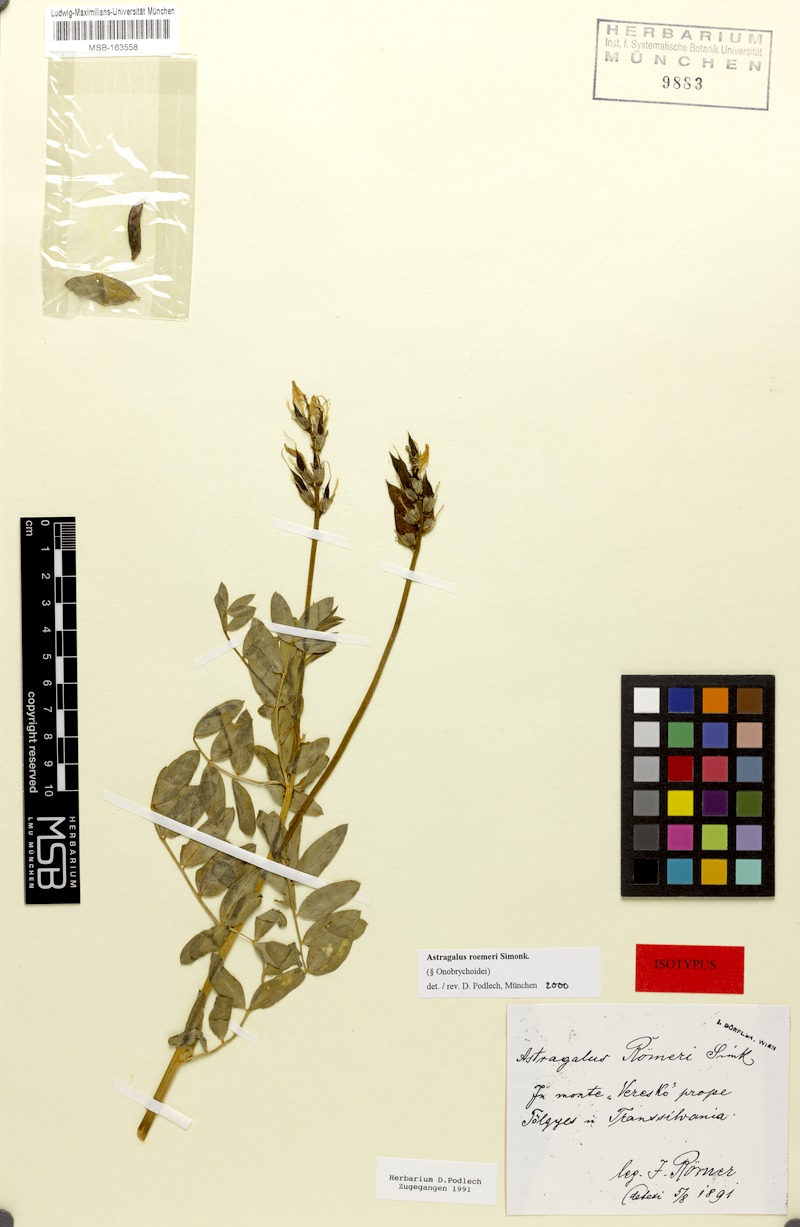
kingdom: Plantae
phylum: Tracheophyta
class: Magnoliopsida
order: Fabales
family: Fabaceae
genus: Astragalus
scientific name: Astragalus roemeri
